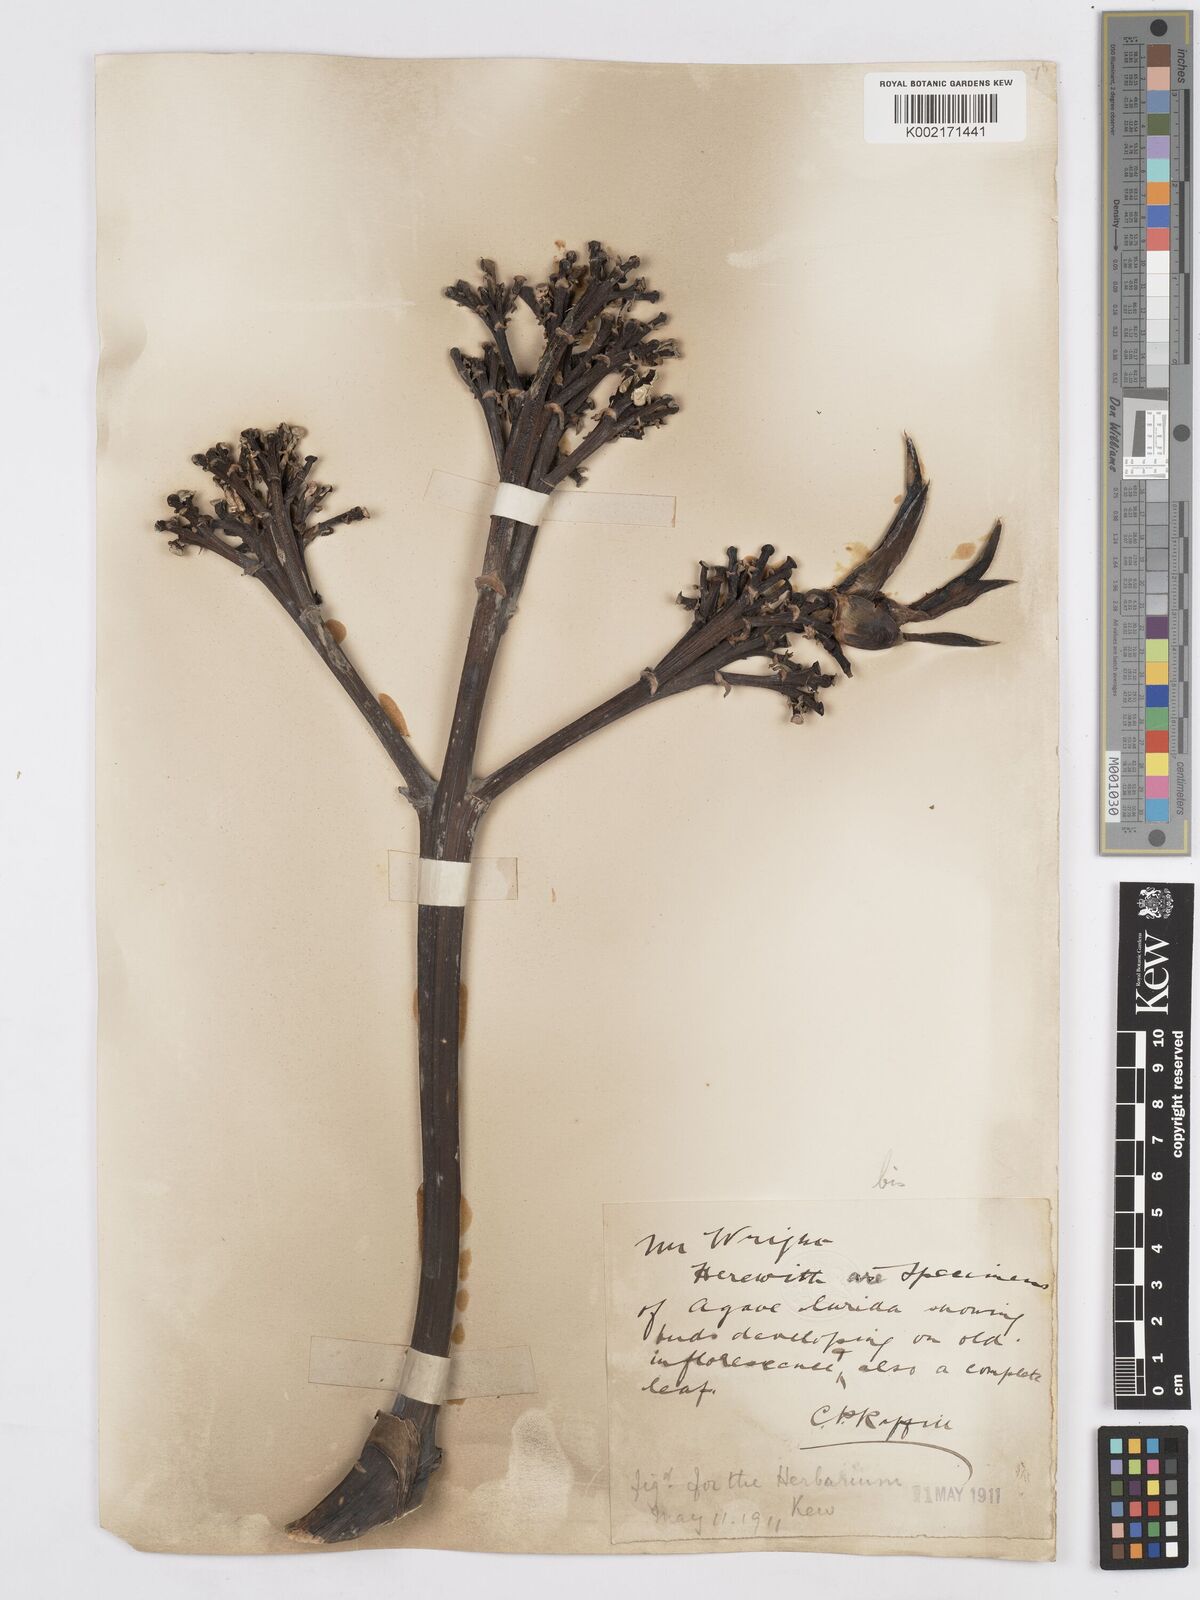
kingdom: Plantae
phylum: Tracheophyta
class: Liliopsida
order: Asparagales
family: Asparagaceae
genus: Agave
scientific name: Agave vera-cruz
